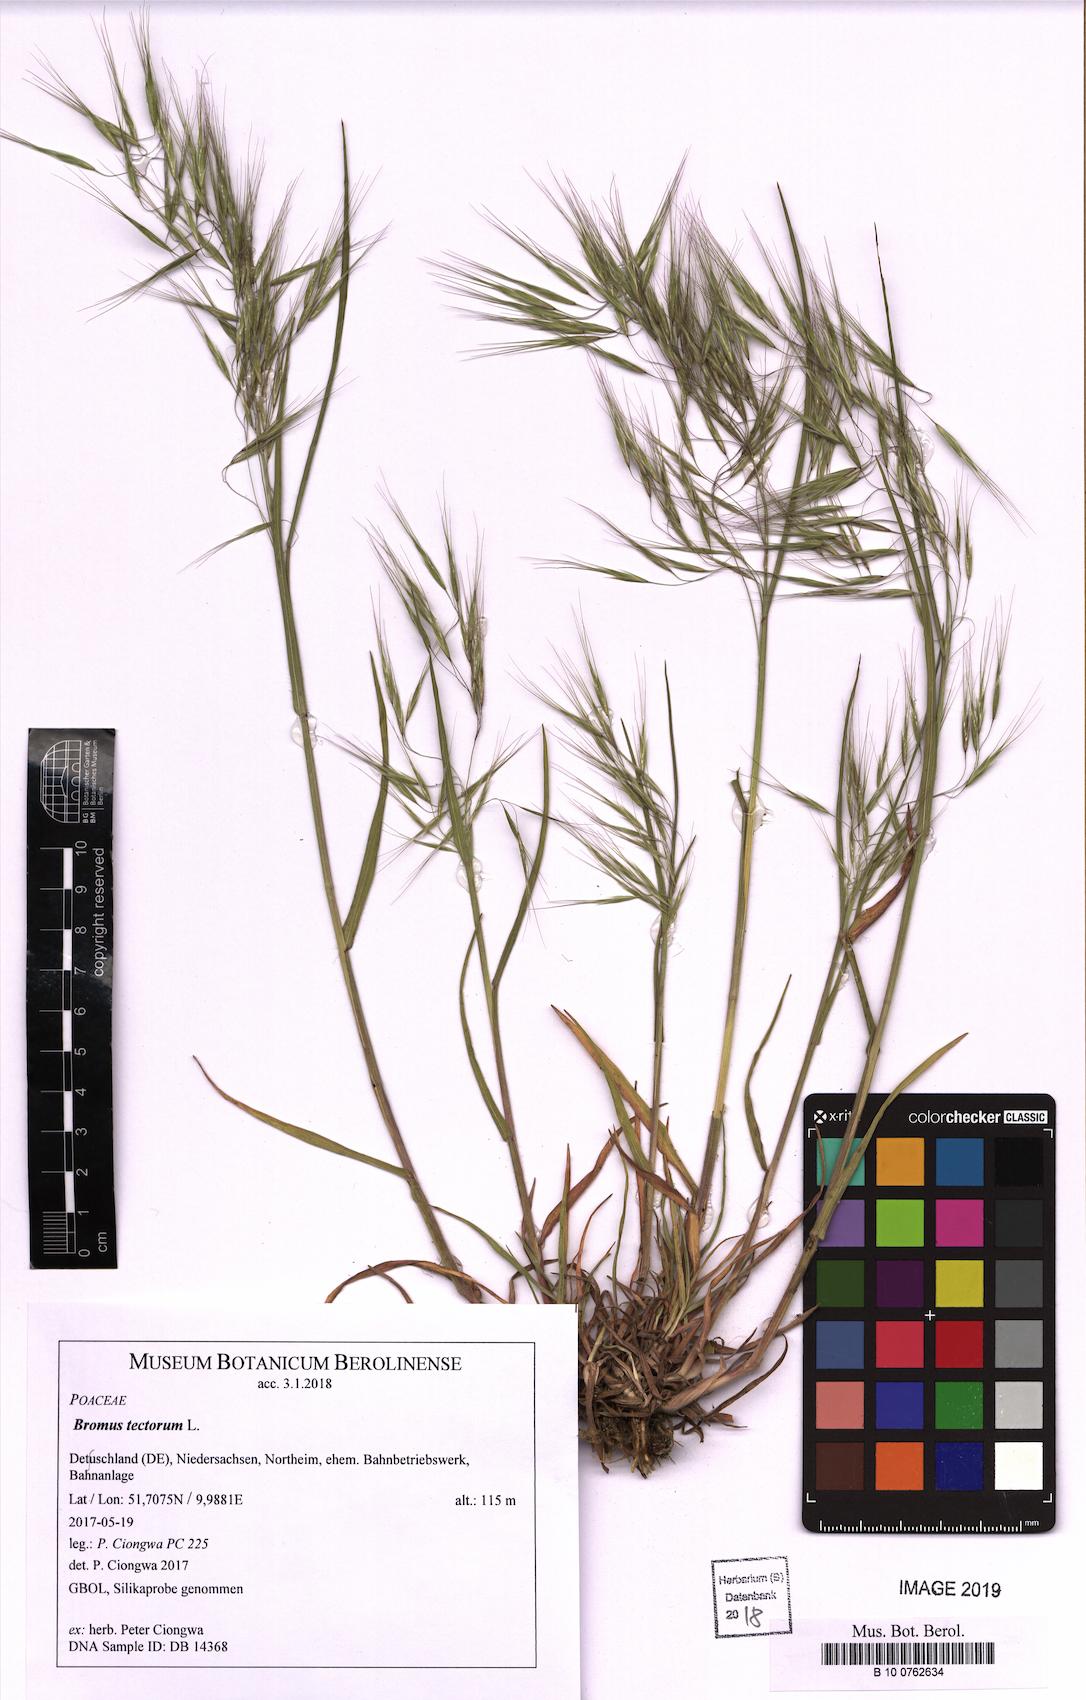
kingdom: Plantae
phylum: Tracheophyta
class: Liliopsida
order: Poales
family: Poaceae
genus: Bromus
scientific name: Bromus tectorum
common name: Cheatgrass
